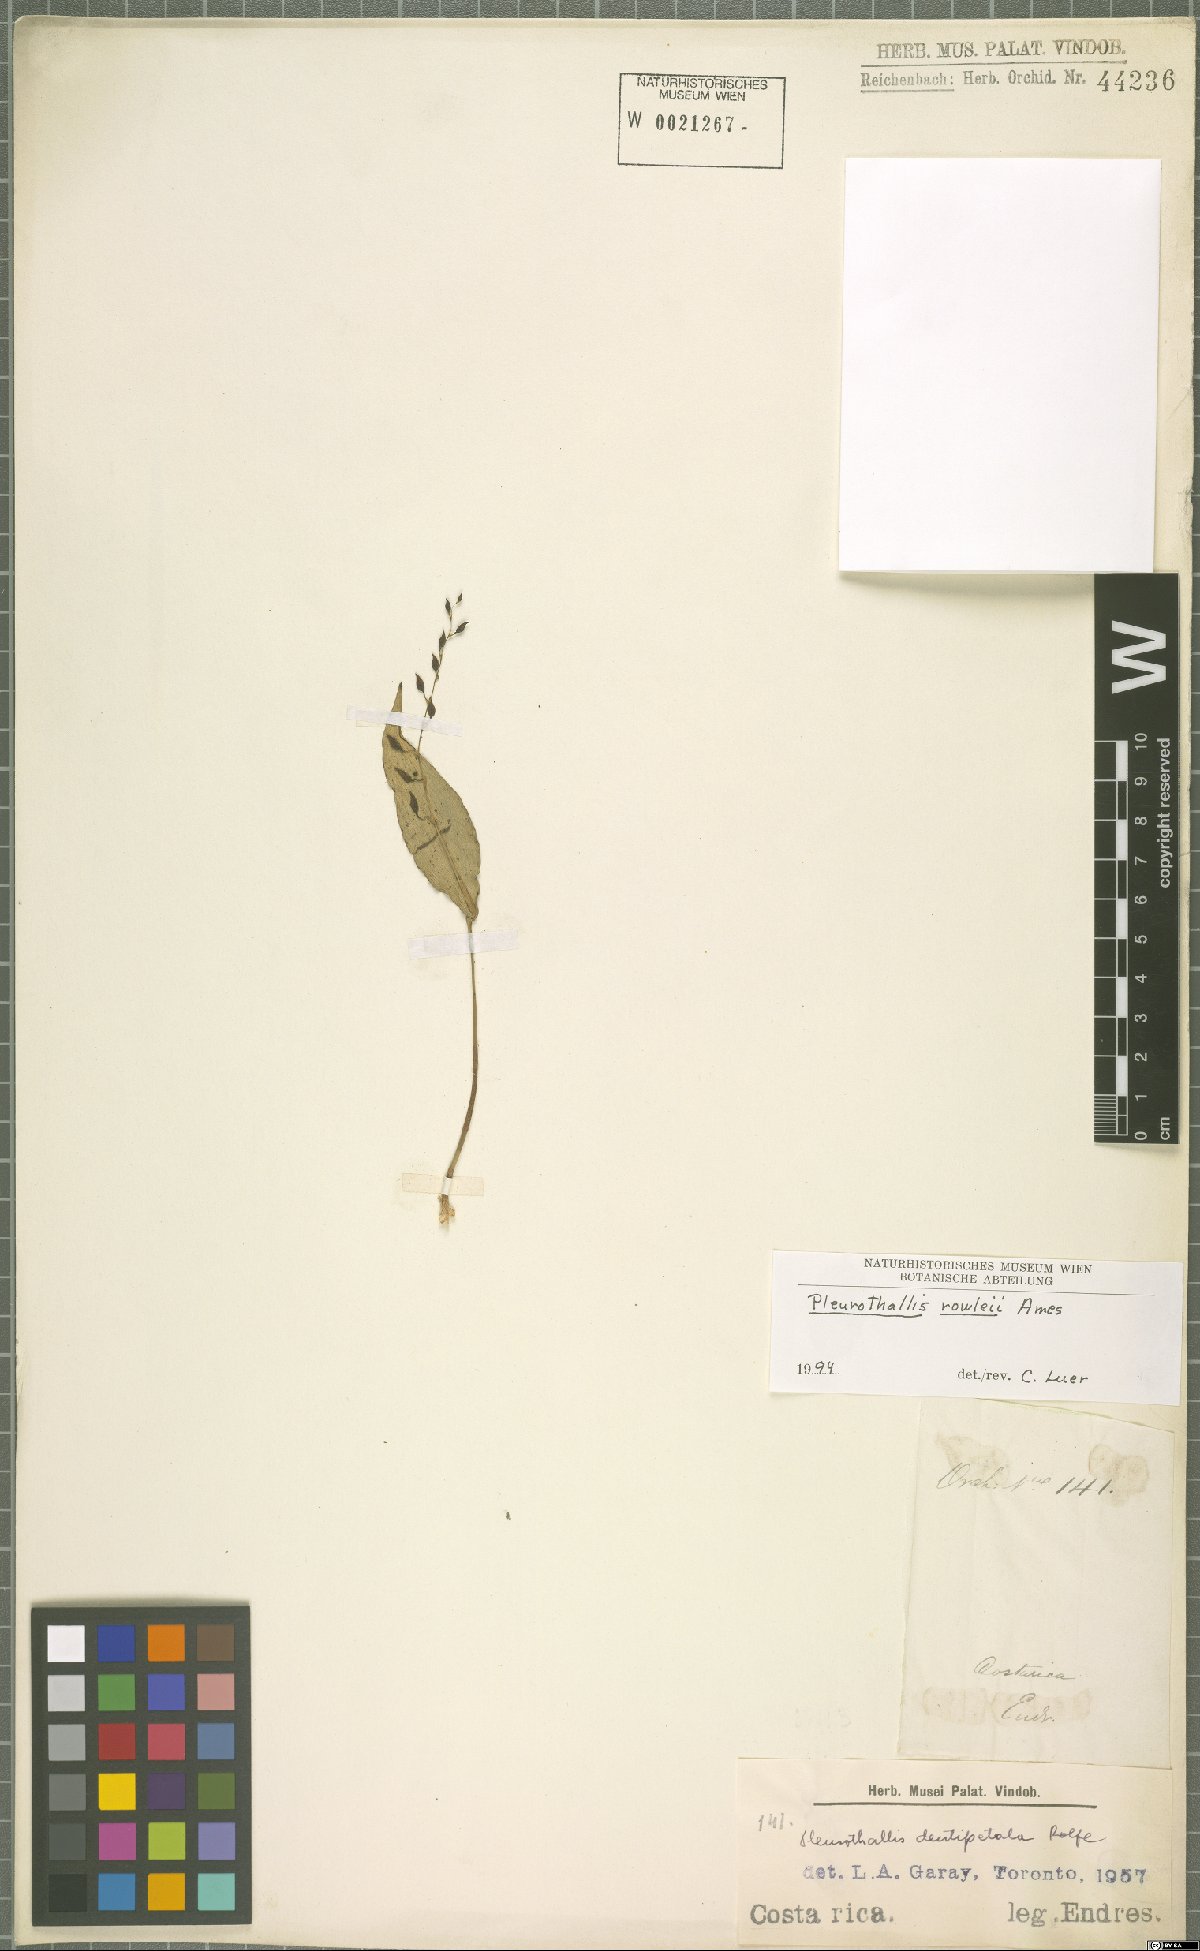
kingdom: Plantae
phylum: Tracheophyta
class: Liliopsida
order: Asparagales
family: Orchidaceae
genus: Pleurothallis
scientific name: Pleurothallis rowleei
